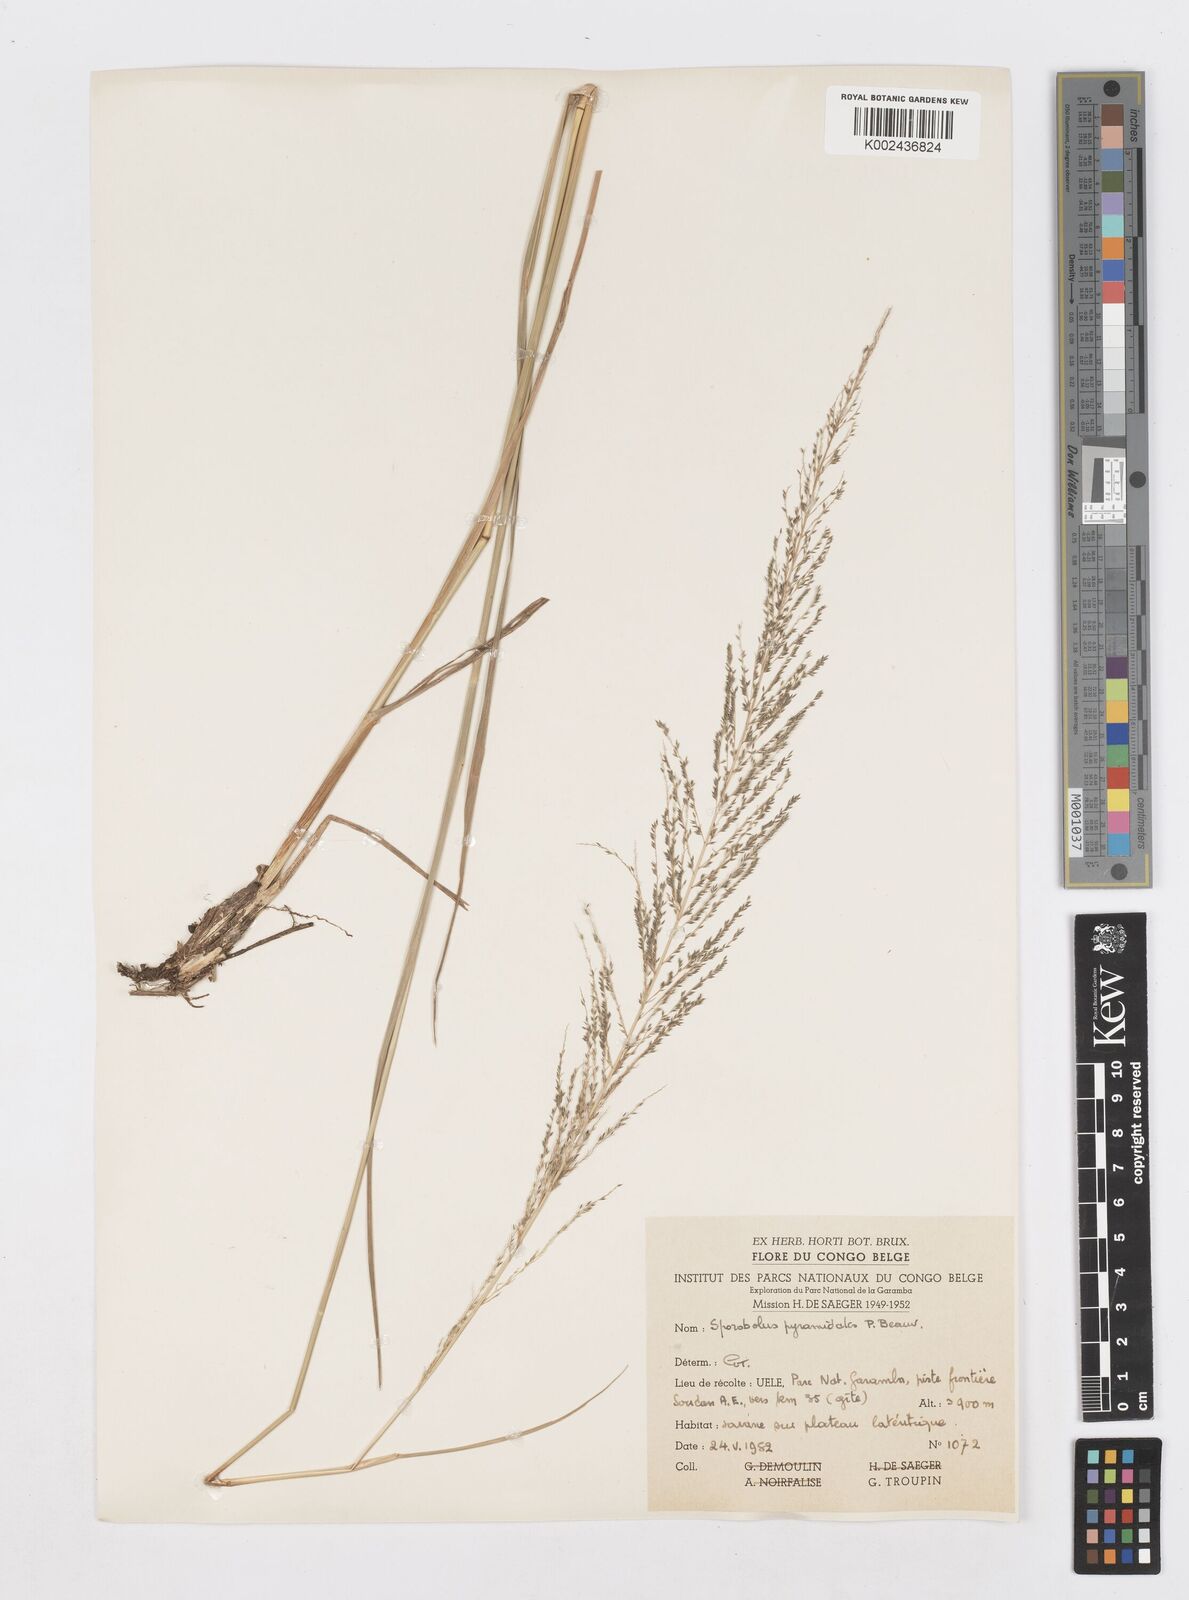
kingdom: Plantae
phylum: Tracheophyta
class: Liliopsida
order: Poales
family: Poaceae
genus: Sporobolus
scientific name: Sporobolus pyramidalis
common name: West indian dropseed
